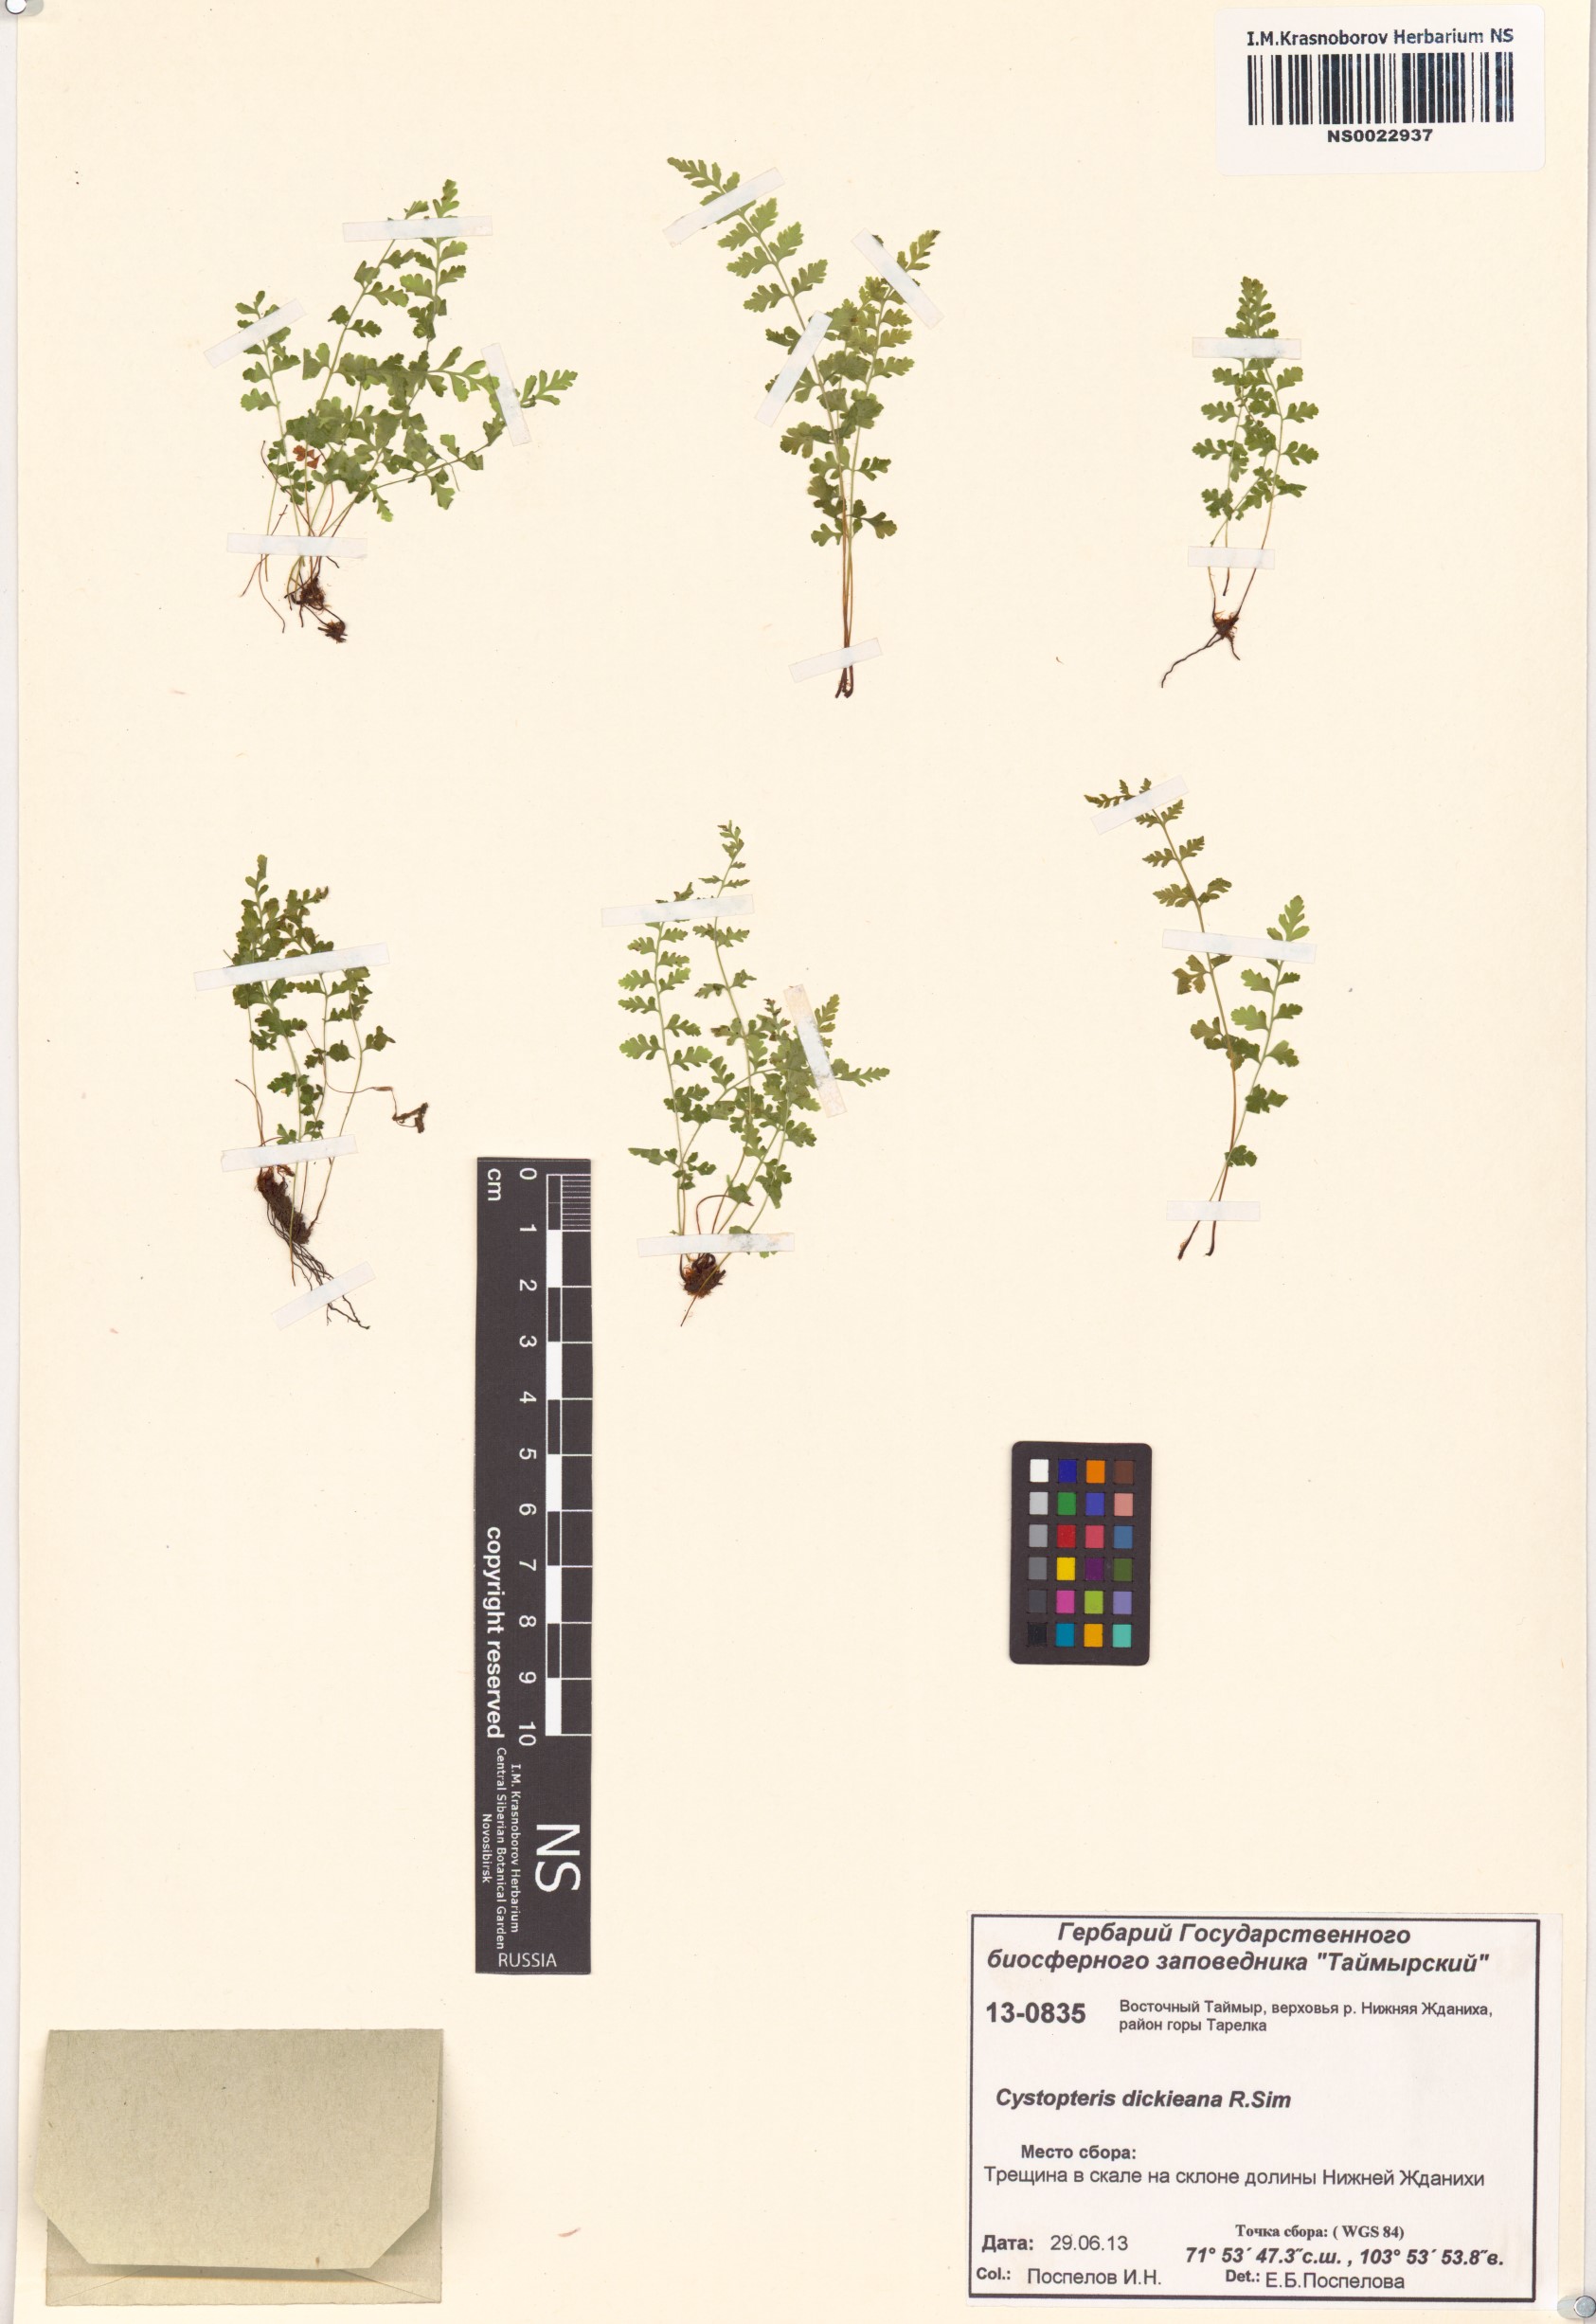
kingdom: Plantae
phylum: Tracheophyta
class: Polypodiopsida
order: Polypodiales
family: Cystopteridaceae
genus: Cystopteris
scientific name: Cystopteris dickieana
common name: Dickie's bladder-fern
